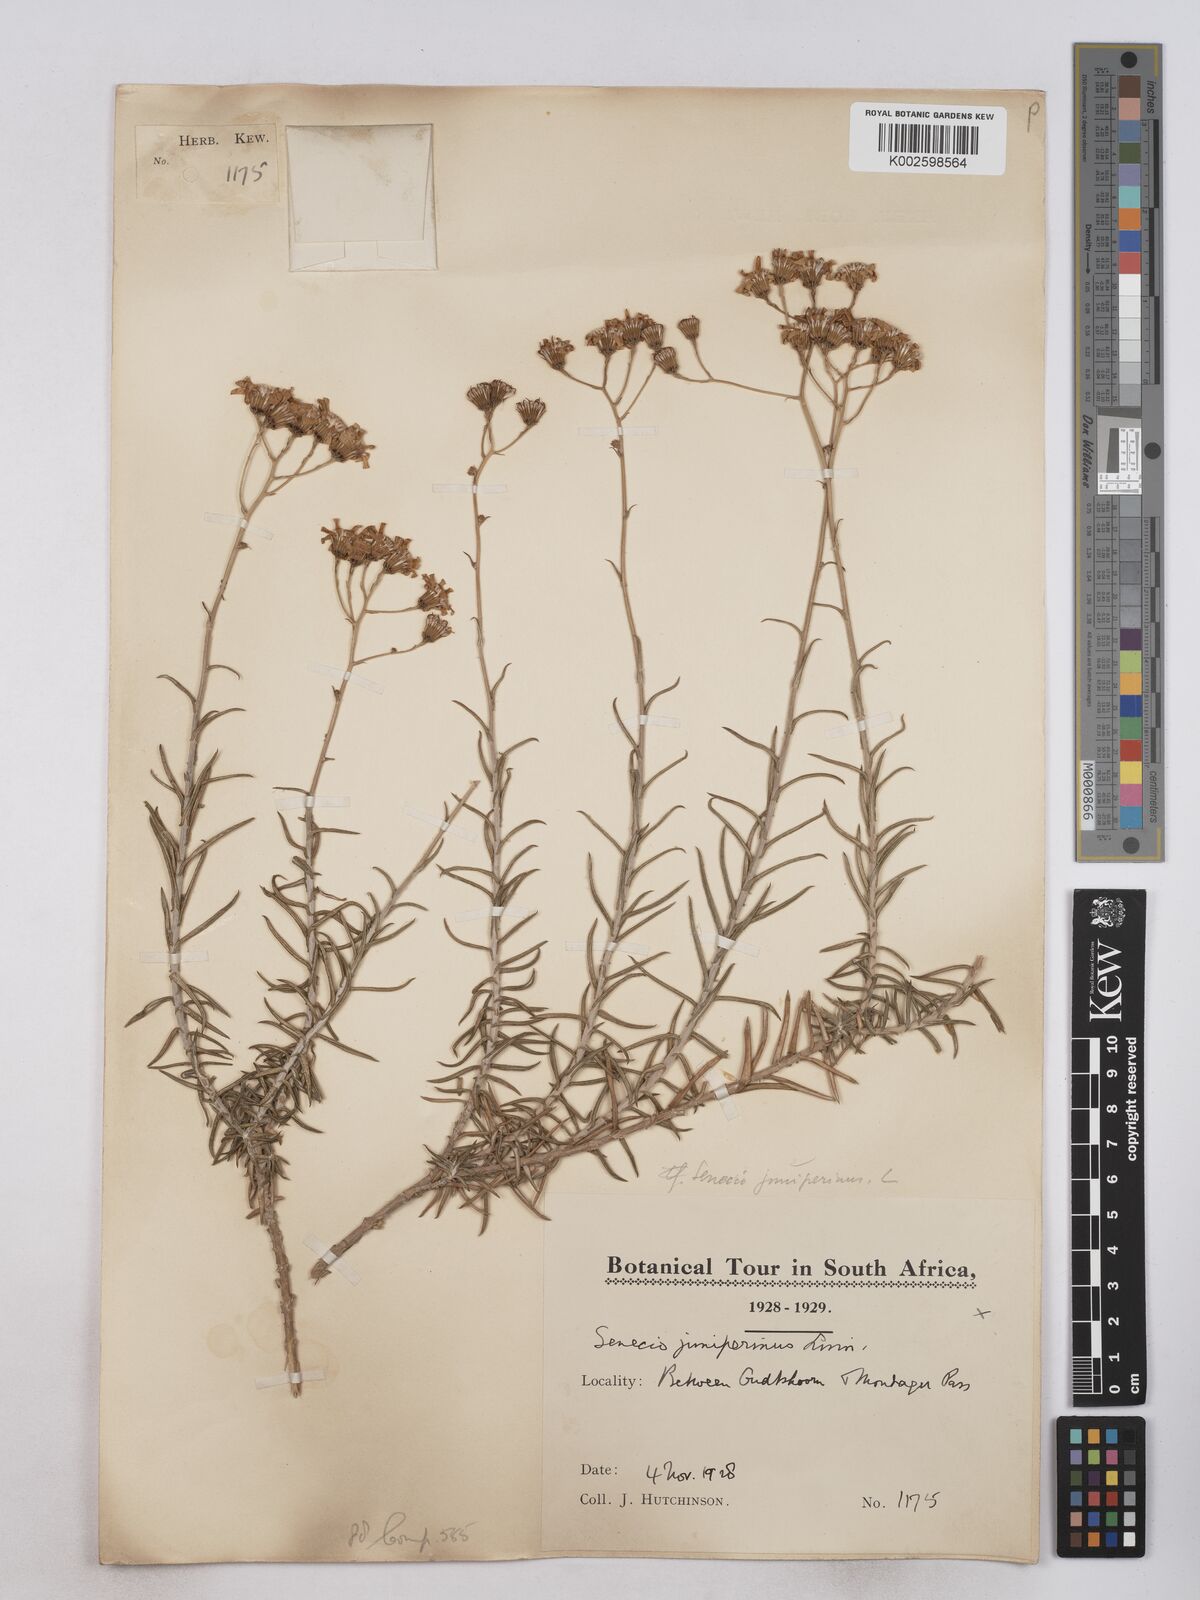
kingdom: Plantae
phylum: Tracheophyta
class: Magnoliopsida
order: Asterales
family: Asteraceae
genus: Senecio
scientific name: Senecio juniperinus
